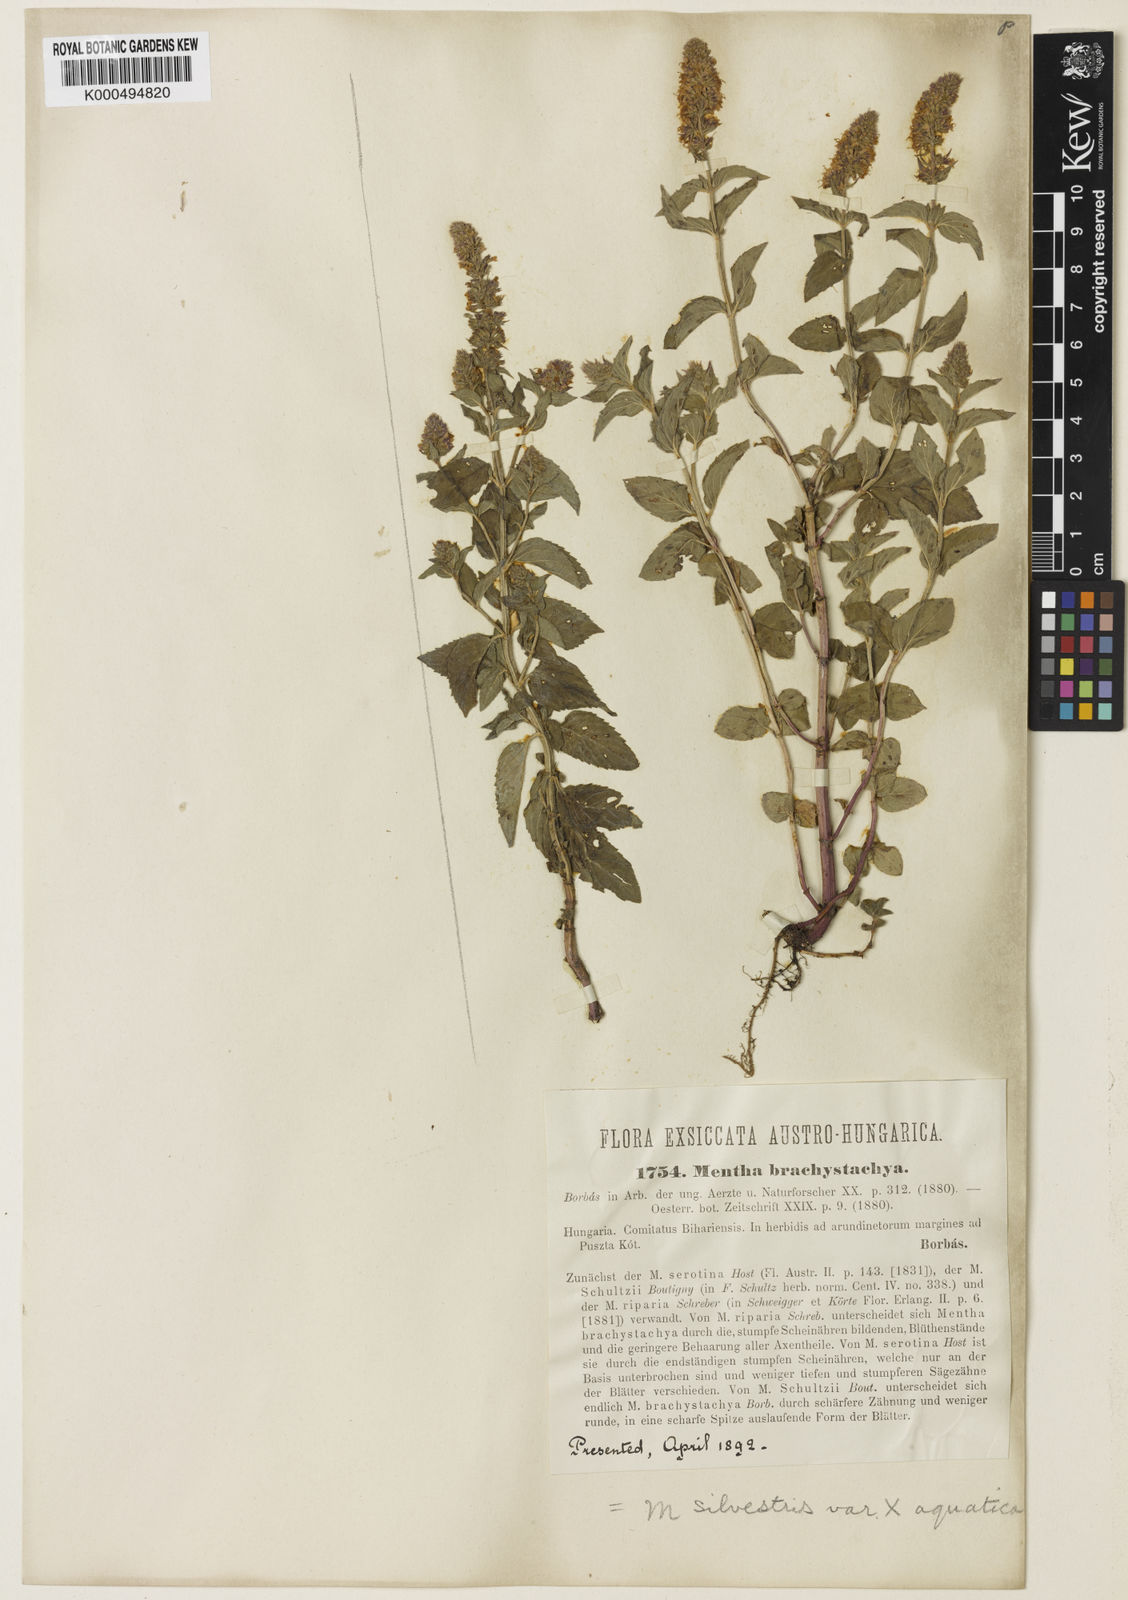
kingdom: Plantae
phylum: Tracheophyta
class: Magnoliopsida
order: Lamiales
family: Lamiaceae
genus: Mentha
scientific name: Mentha aquatica
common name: Water mint
